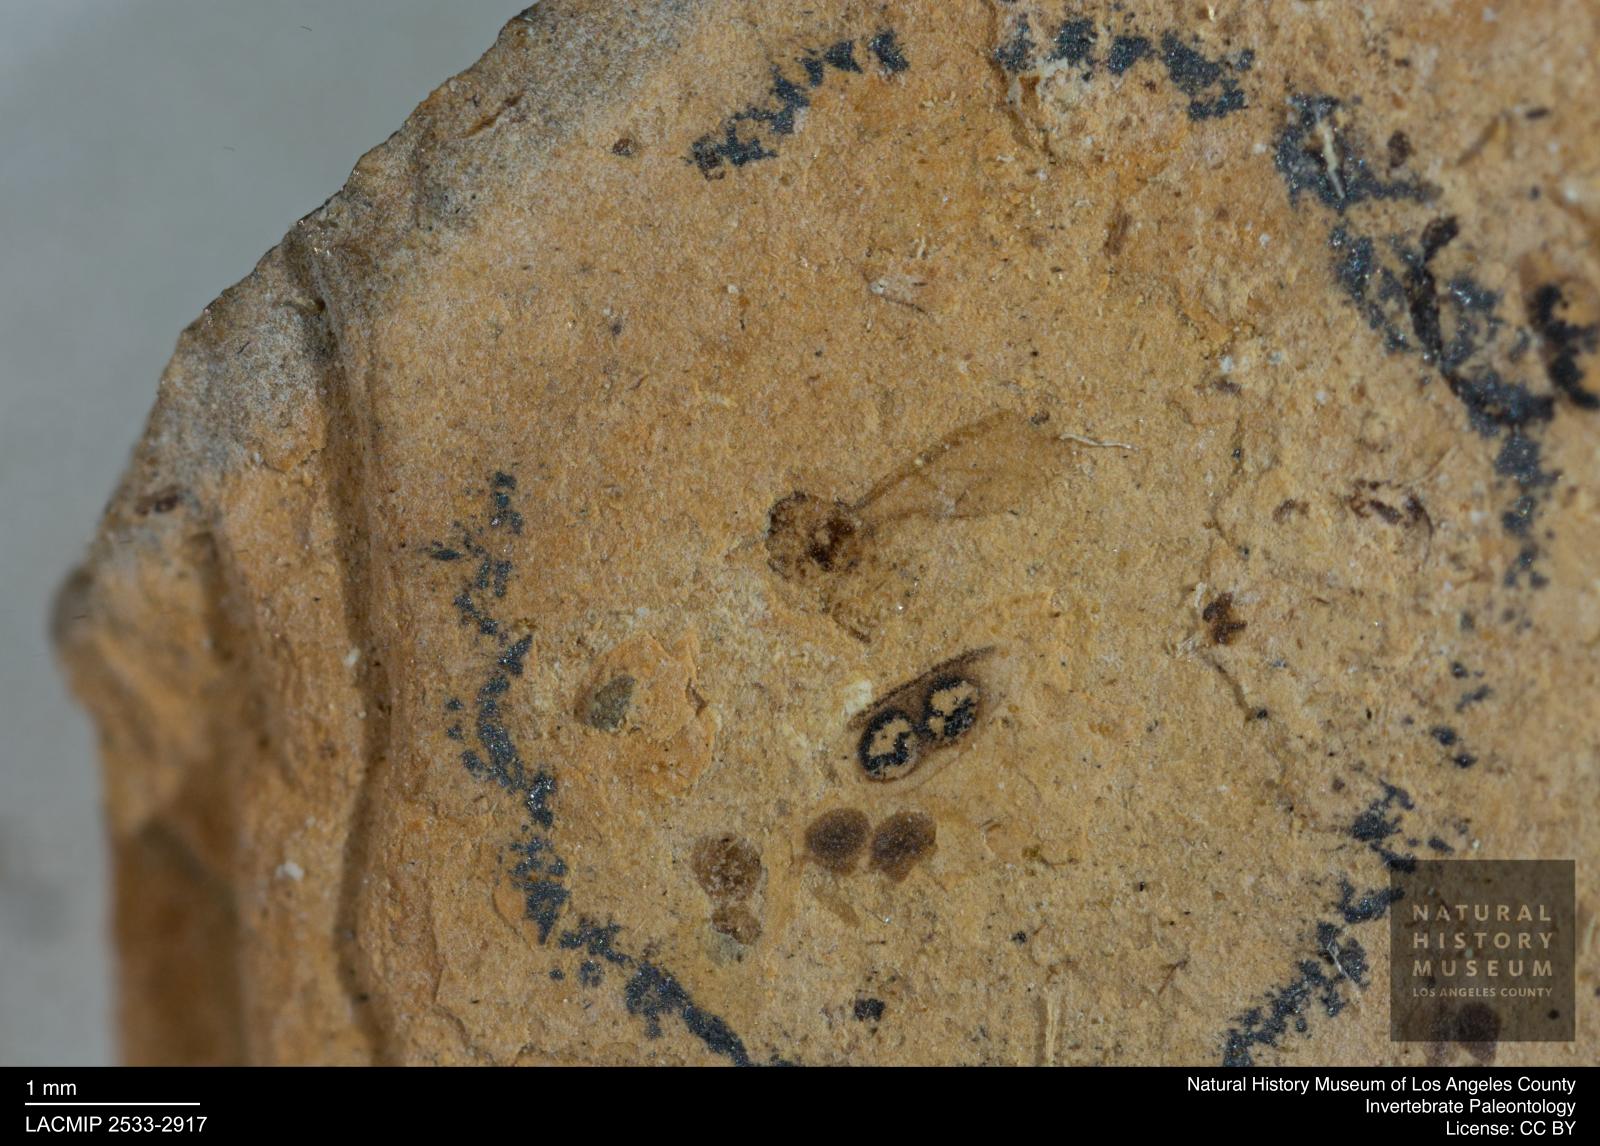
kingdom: Animalia
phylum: Arthropoda
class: Insecta
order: Hemiptera
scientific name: Hemiptera
